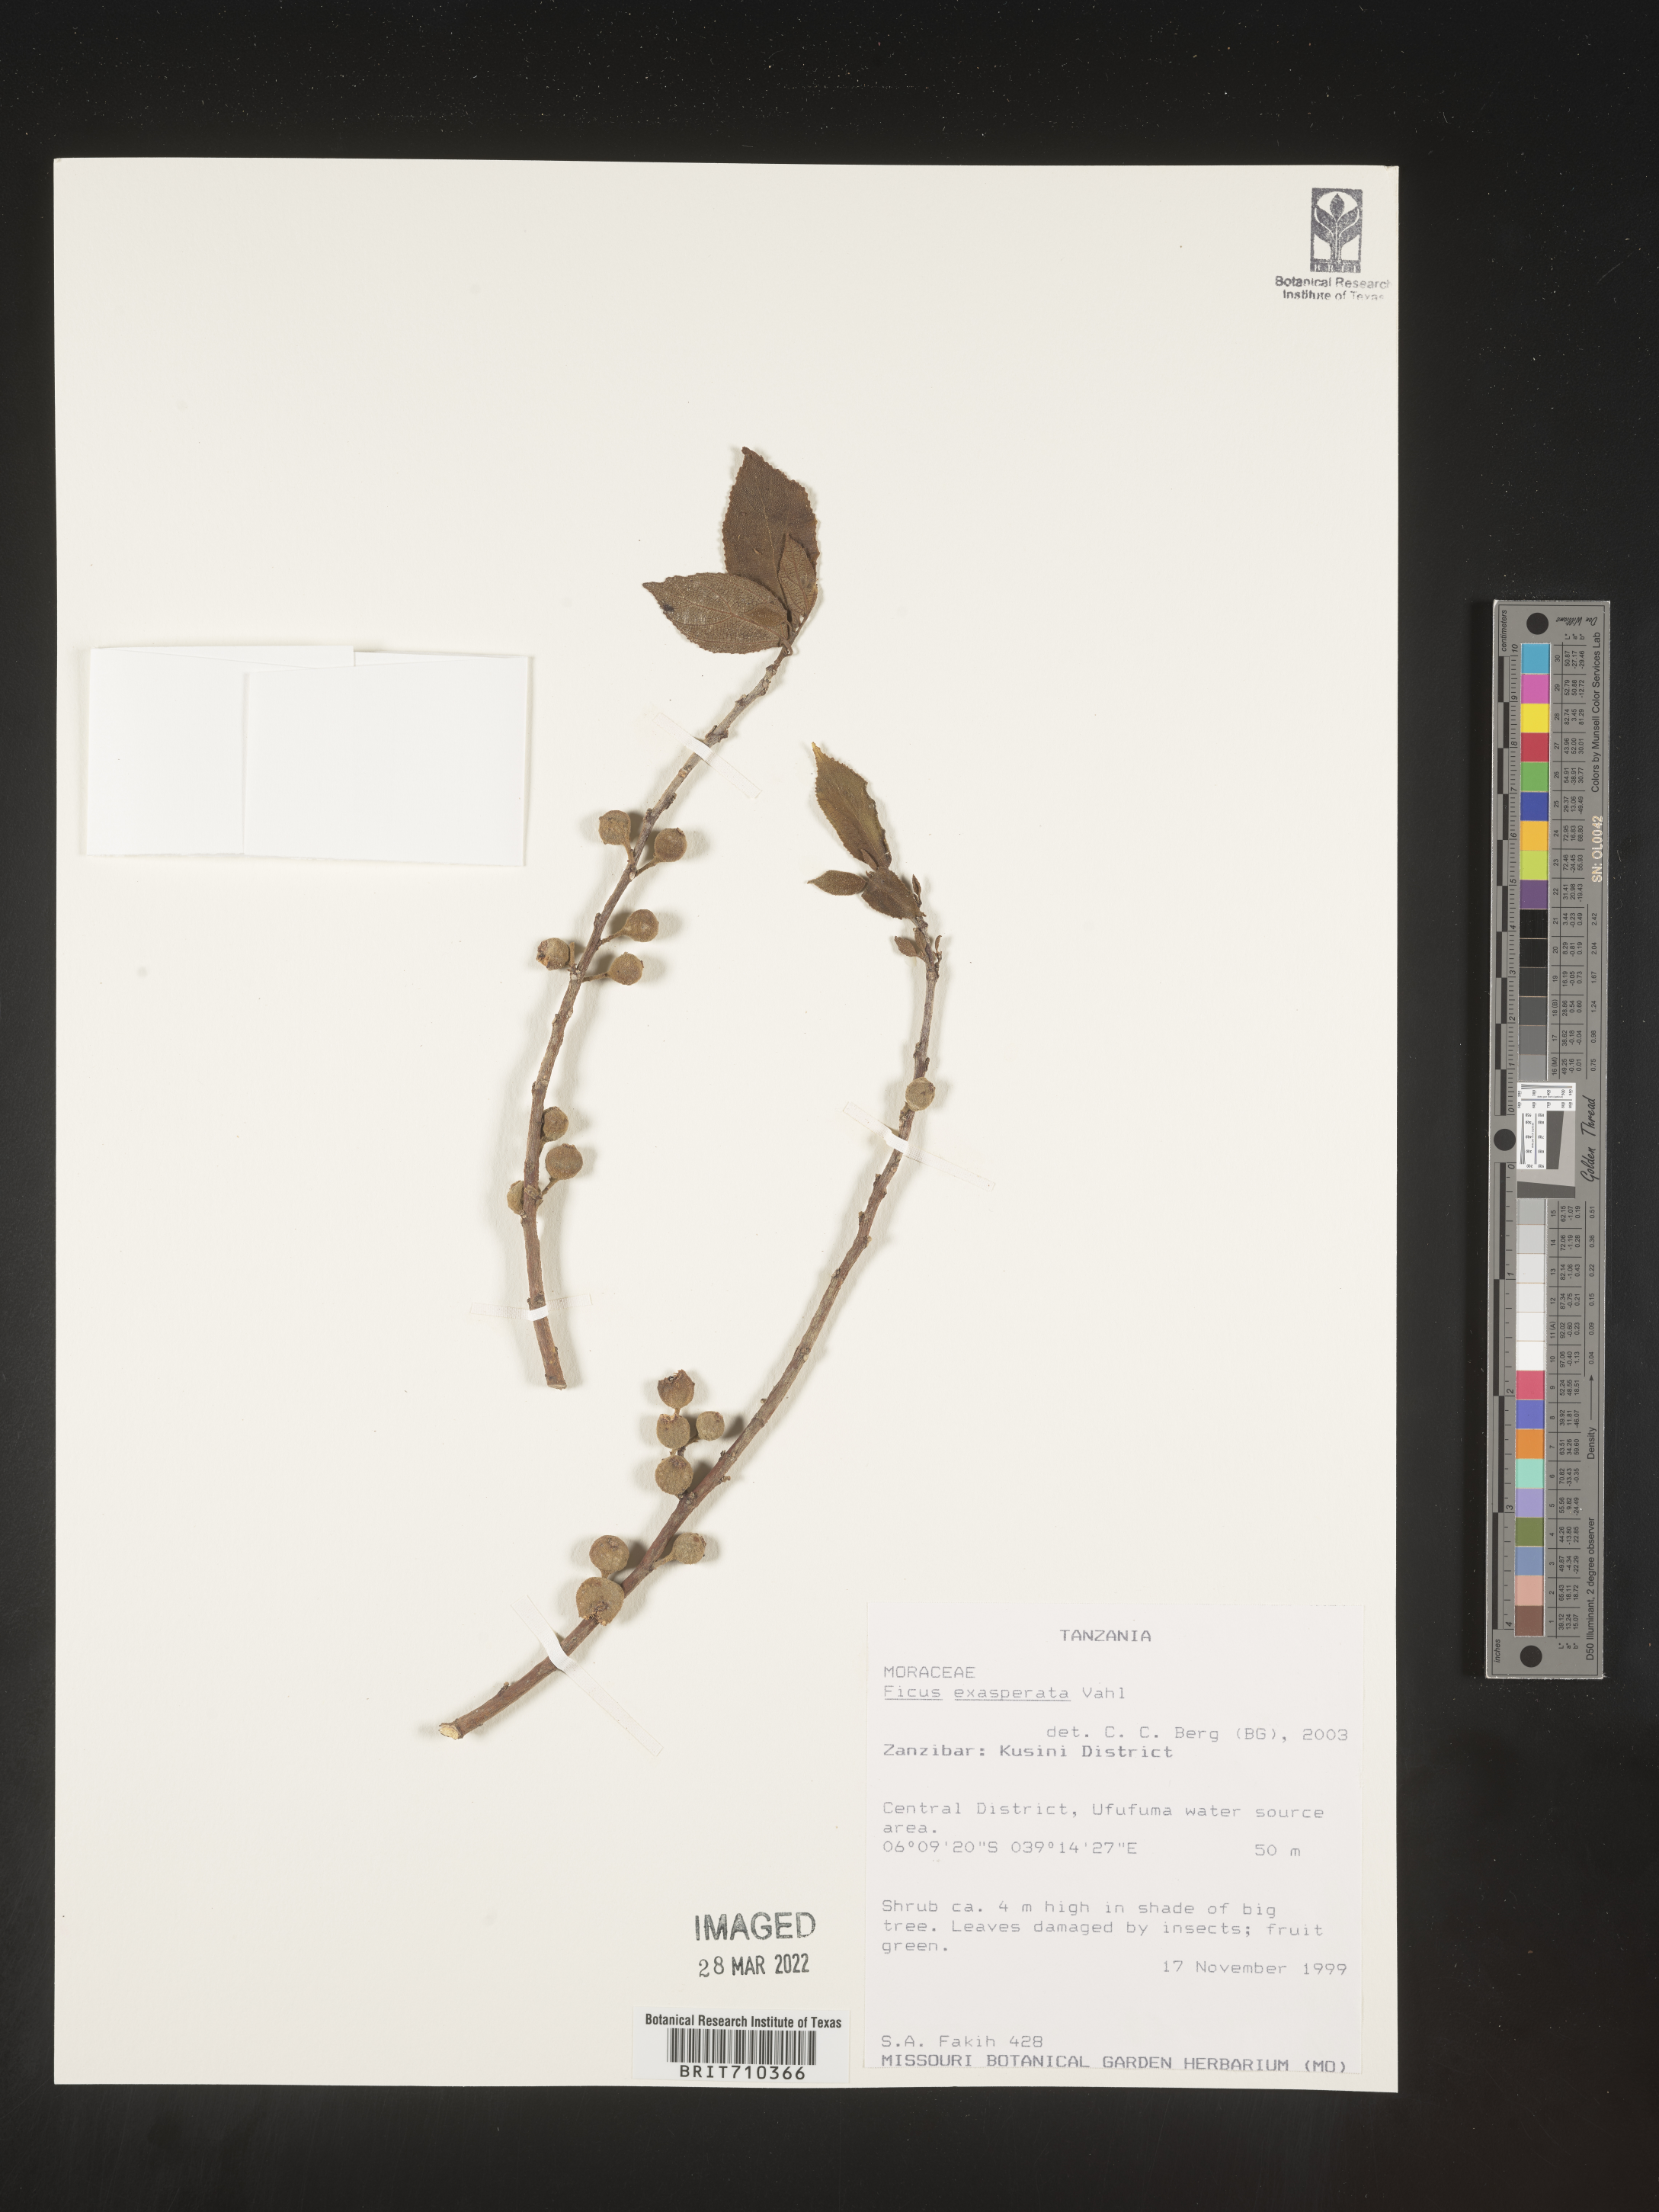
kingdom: Plantae
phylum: Tracheophyta
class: Magnoliopsida
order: Rosales
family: Moraceae
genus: Ficus
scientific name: Ficus
